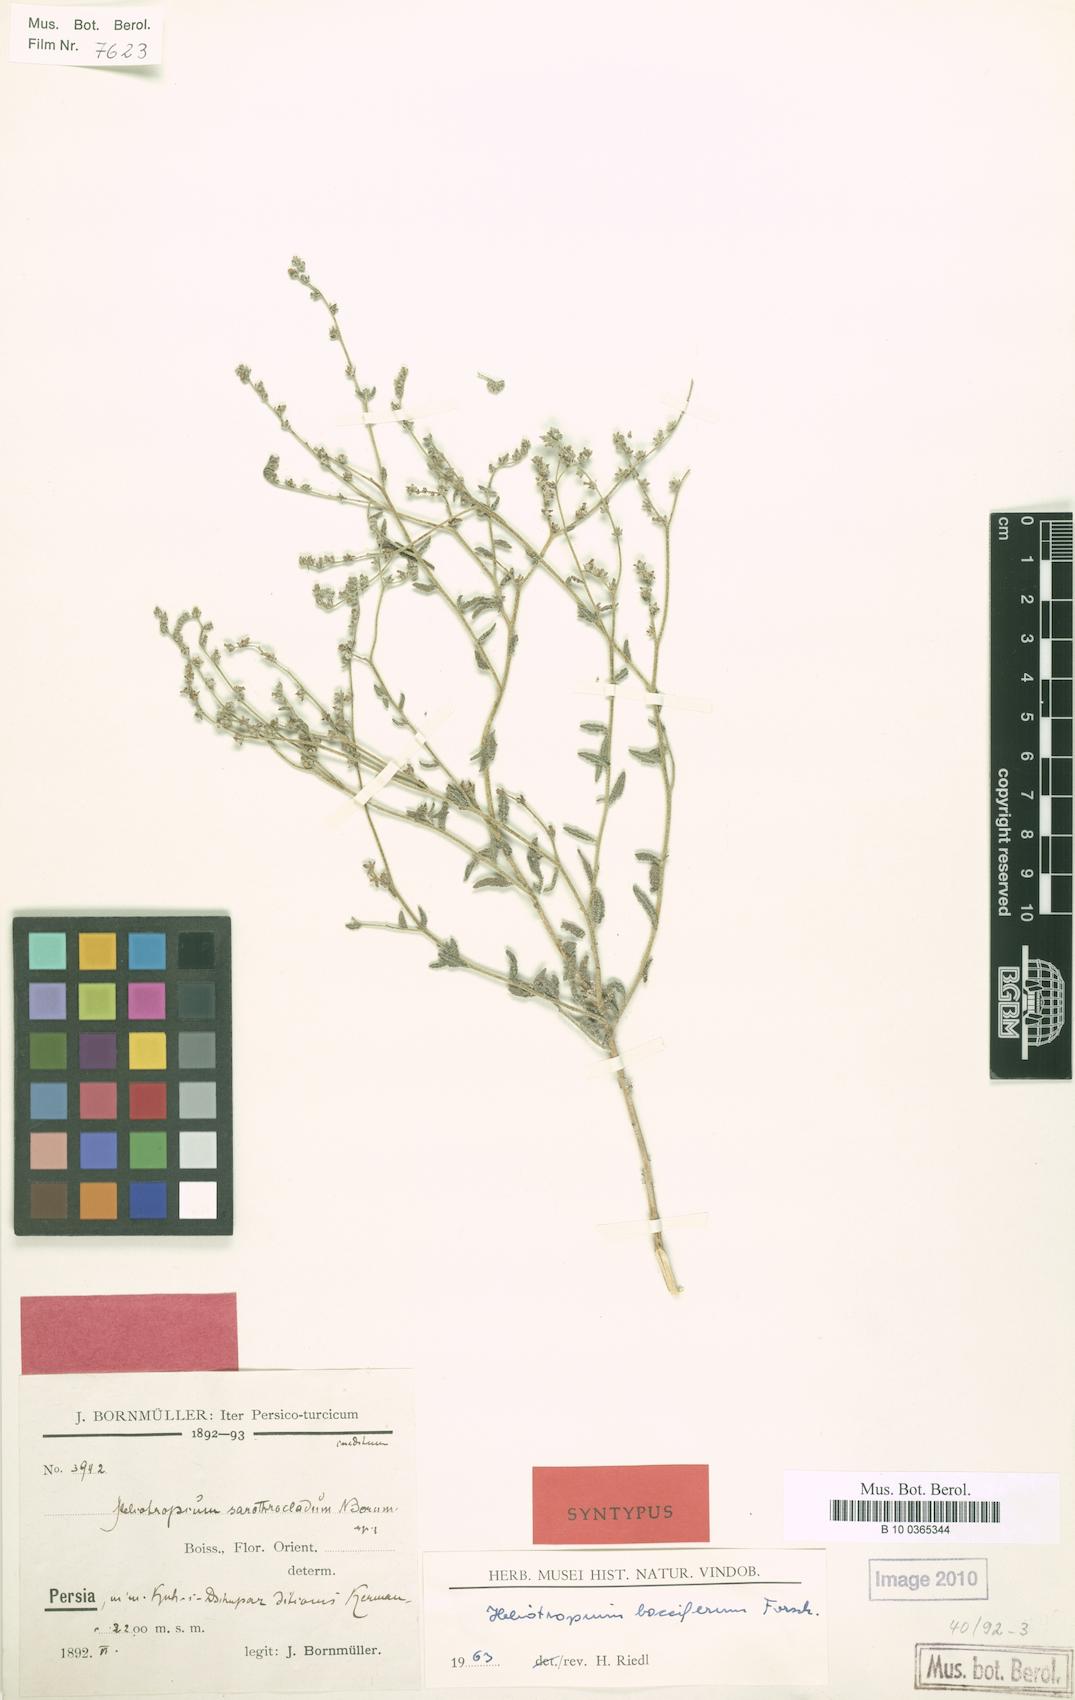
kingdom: Plantae
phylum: Tracheophyta
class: Magnoliopsida
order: Boraginales
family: Heliotropiaceae
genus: Heliotropium
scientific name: Heliotropium bacciferum
